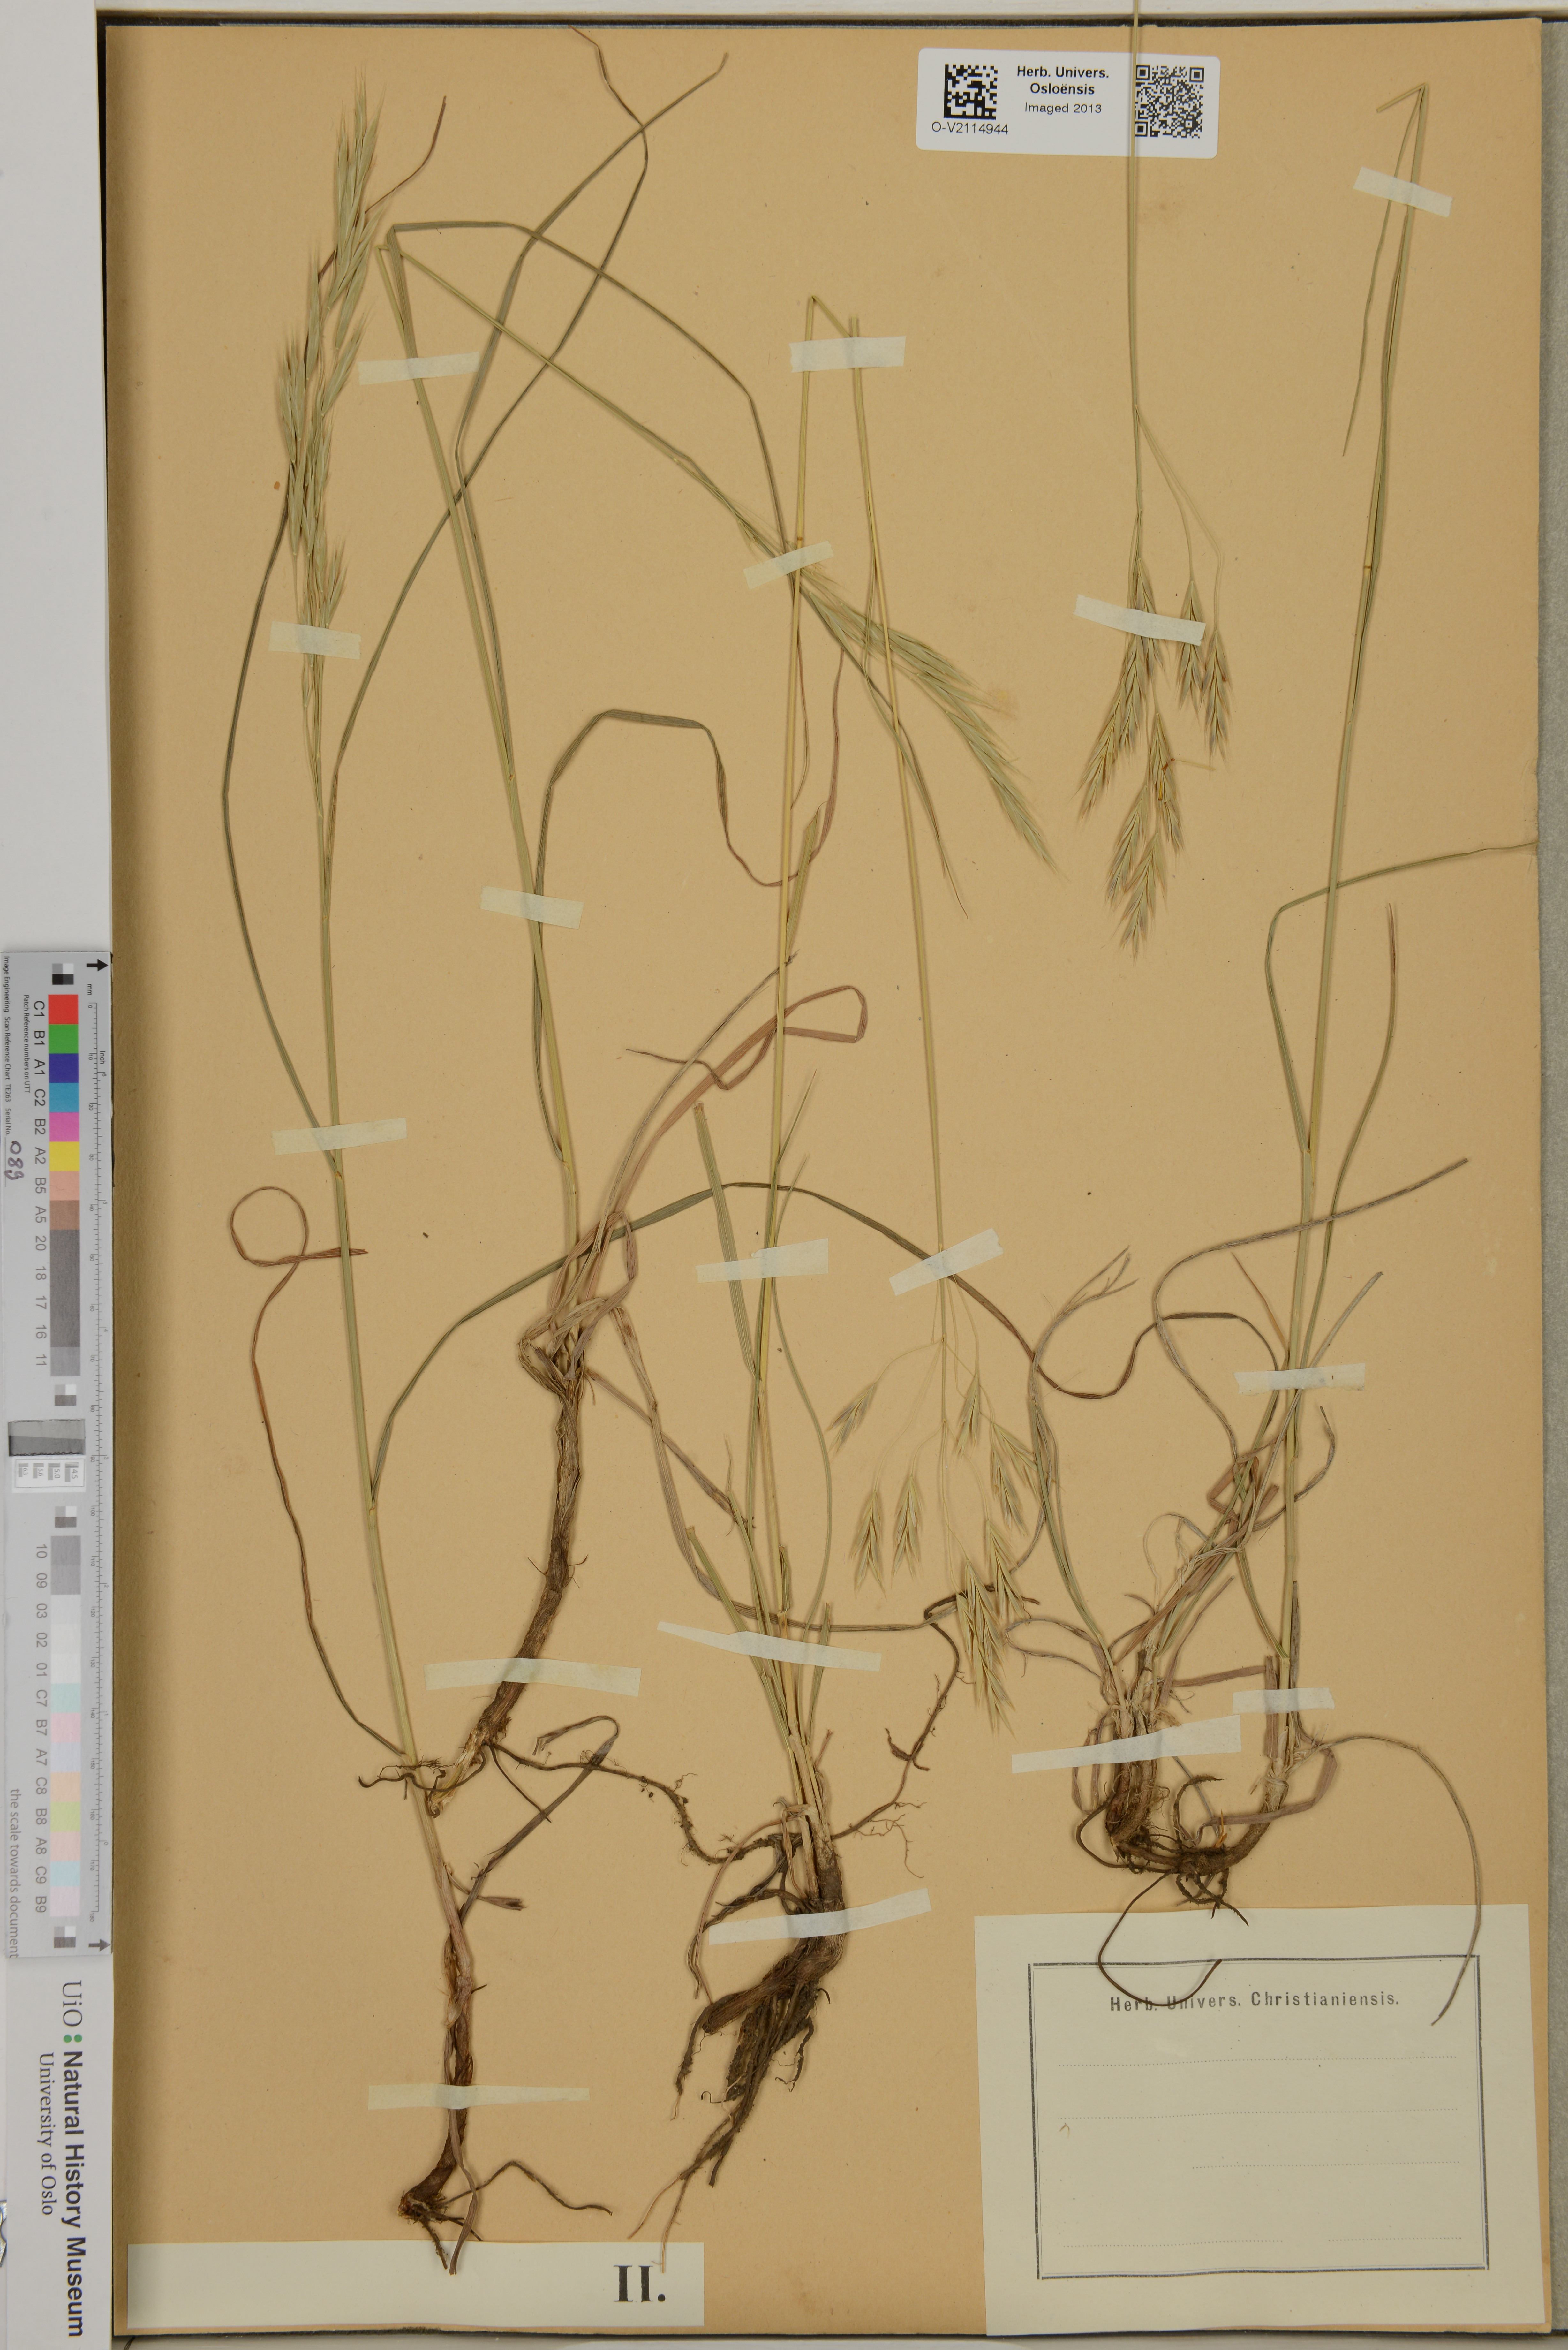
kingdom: Plantae
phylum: Tracheophyta
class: Liliopsida
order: Poales
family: Poaceae
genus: Bromus
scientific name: Bromus riparius
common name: Meadow brome
